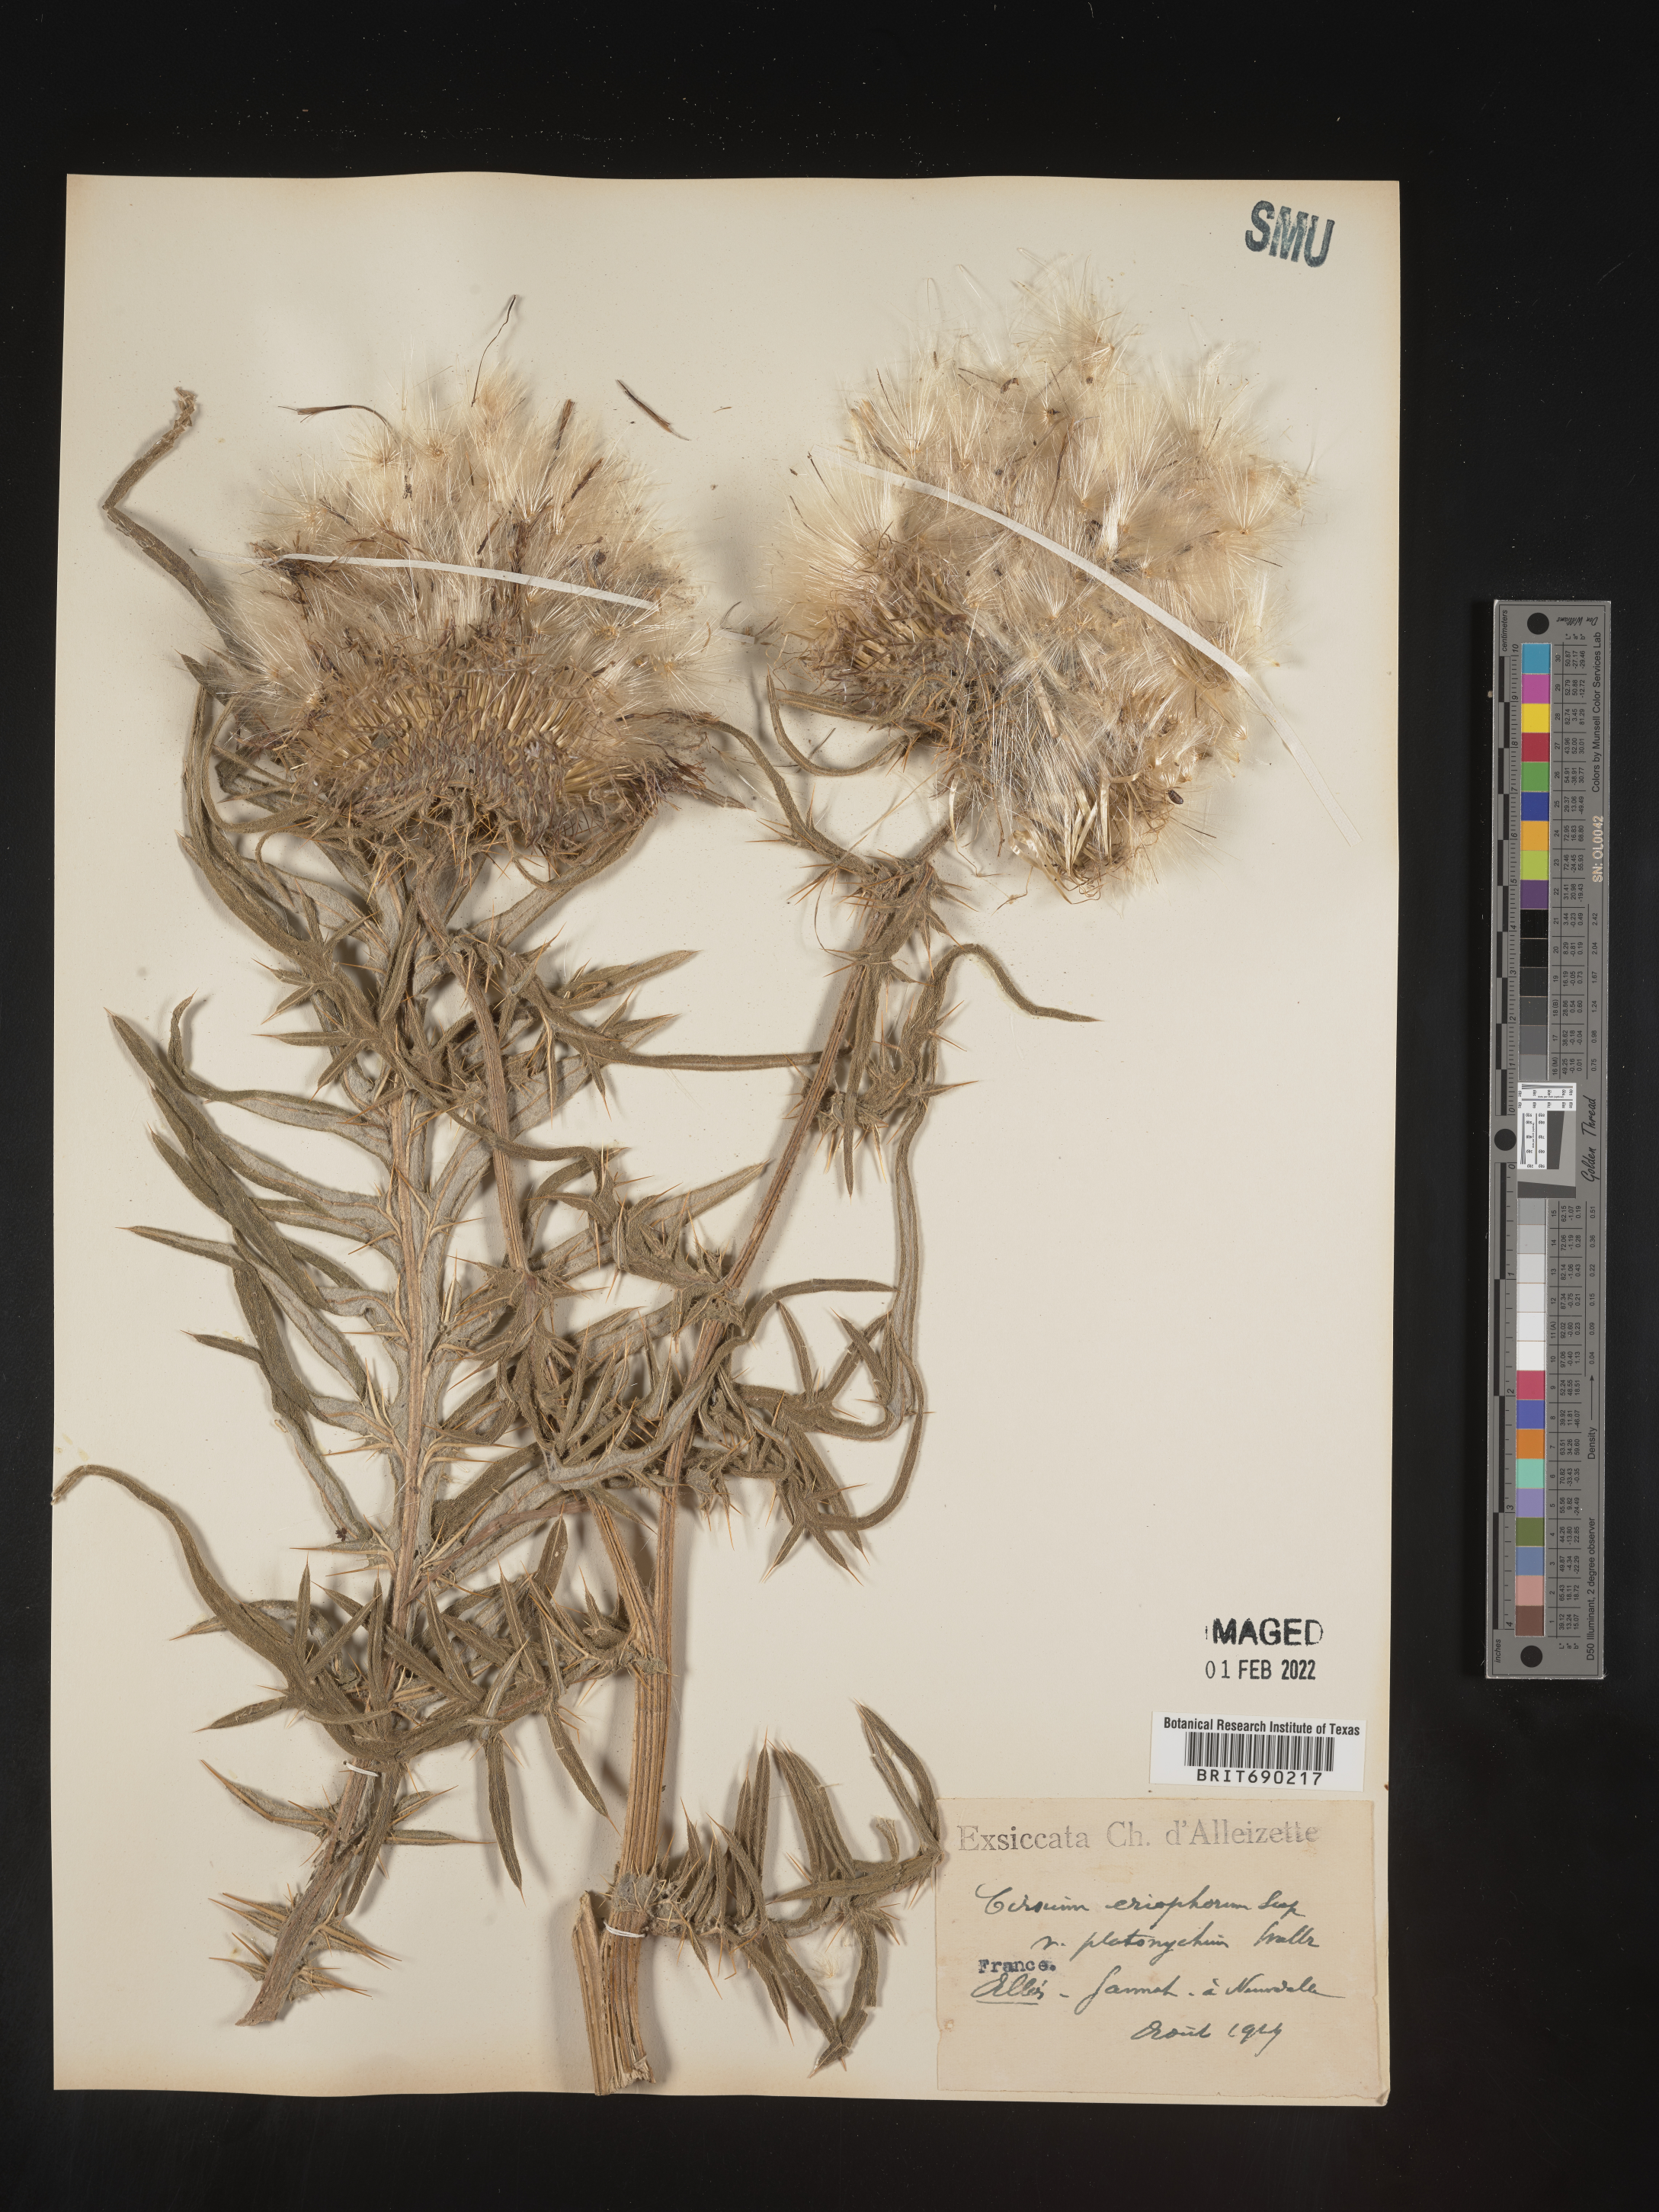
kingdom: Plantae
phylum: Tracheophyta
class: Magnoliopsida
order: Asterales
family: Asteraceae
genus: Cirsium
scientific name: Cirsium
